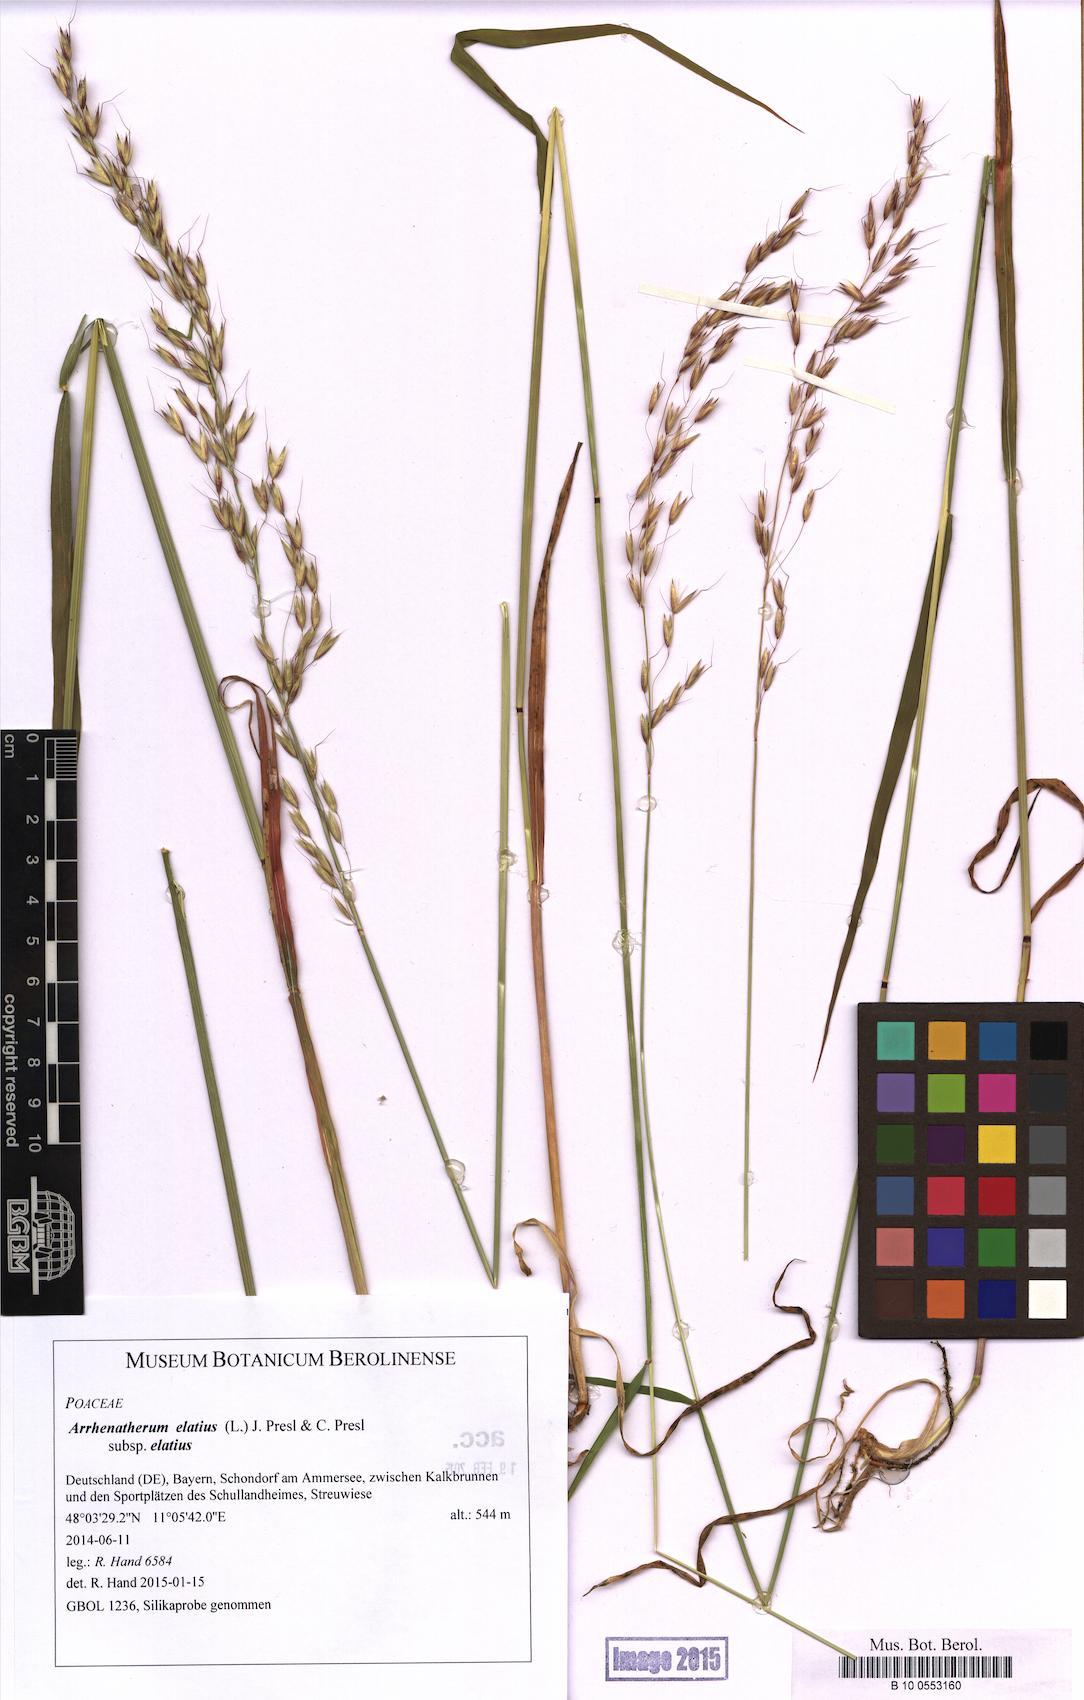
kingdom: Plantae
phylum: Tracheophyta
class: Liliopsida
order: Poales
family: Poaceae
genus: Arrhenatherum
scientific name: Arrhenatherum elatius
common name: Tall oatgrass
